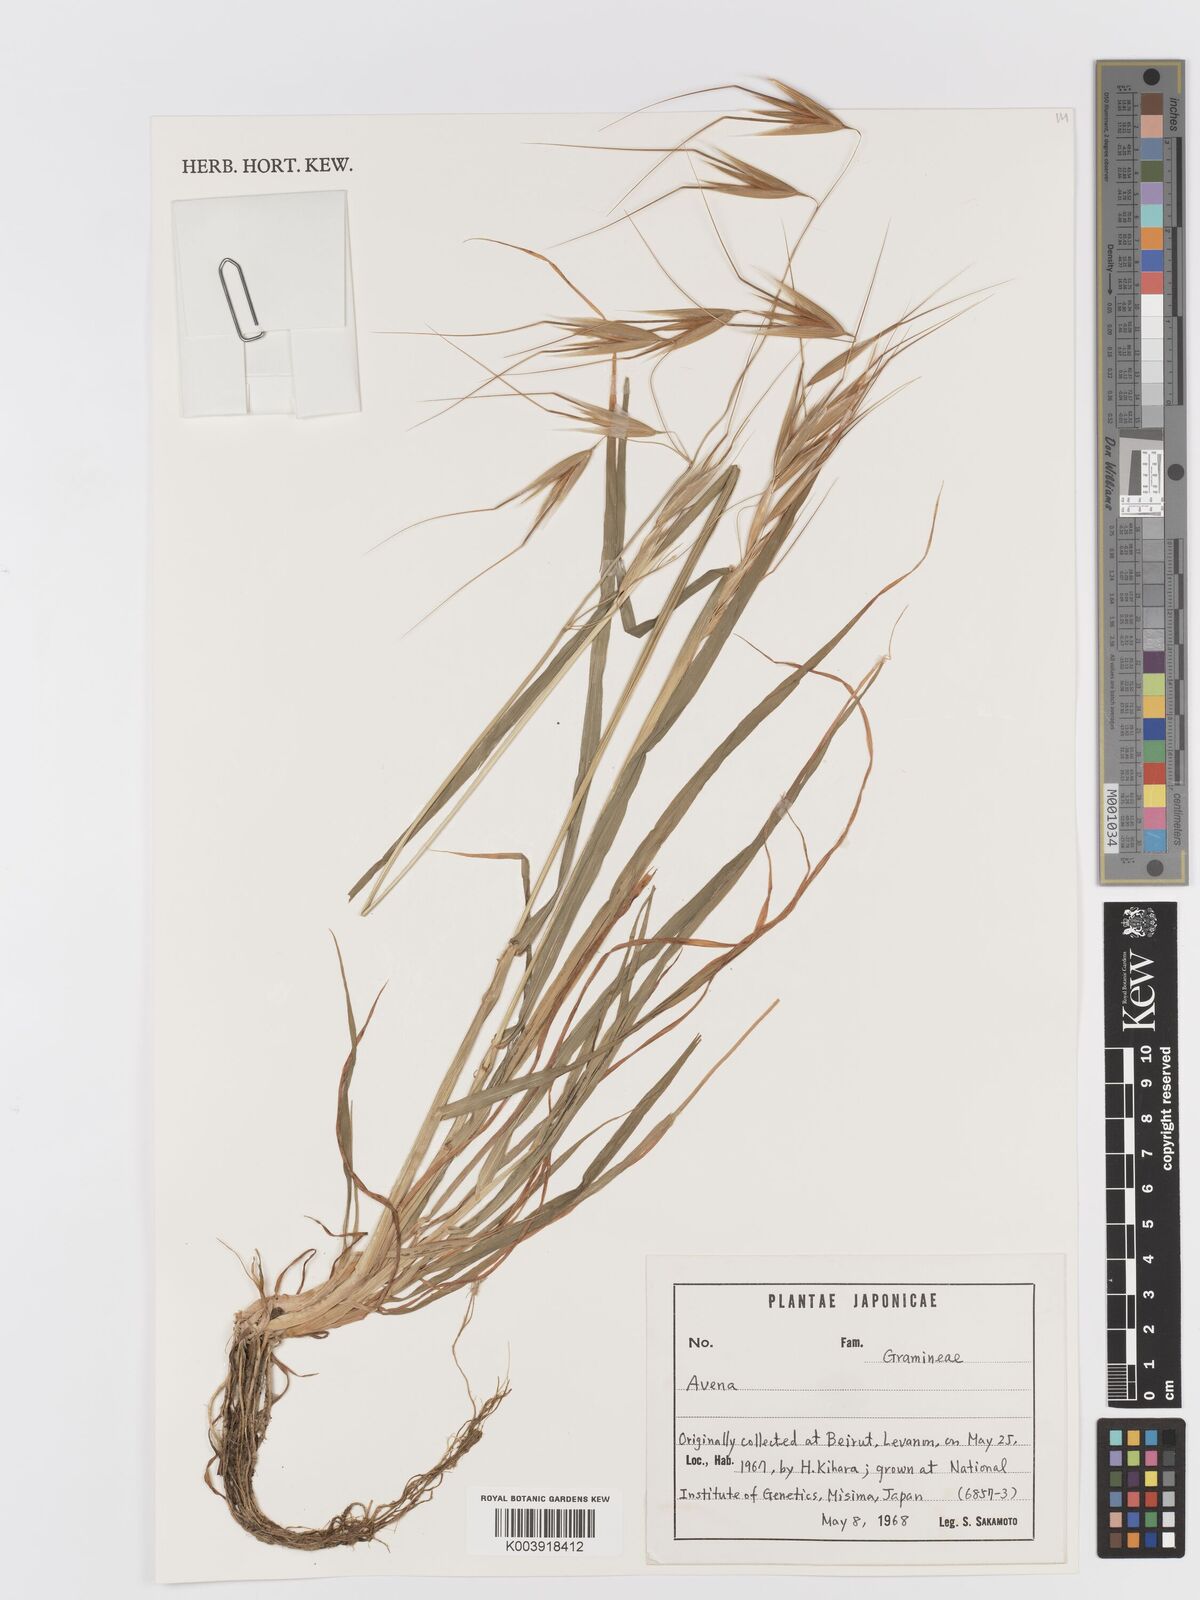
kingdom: Plantae
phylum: Tracheophyta
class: Liliopsida
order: Poales
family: Poaceae
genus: Avena
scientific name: Avena
